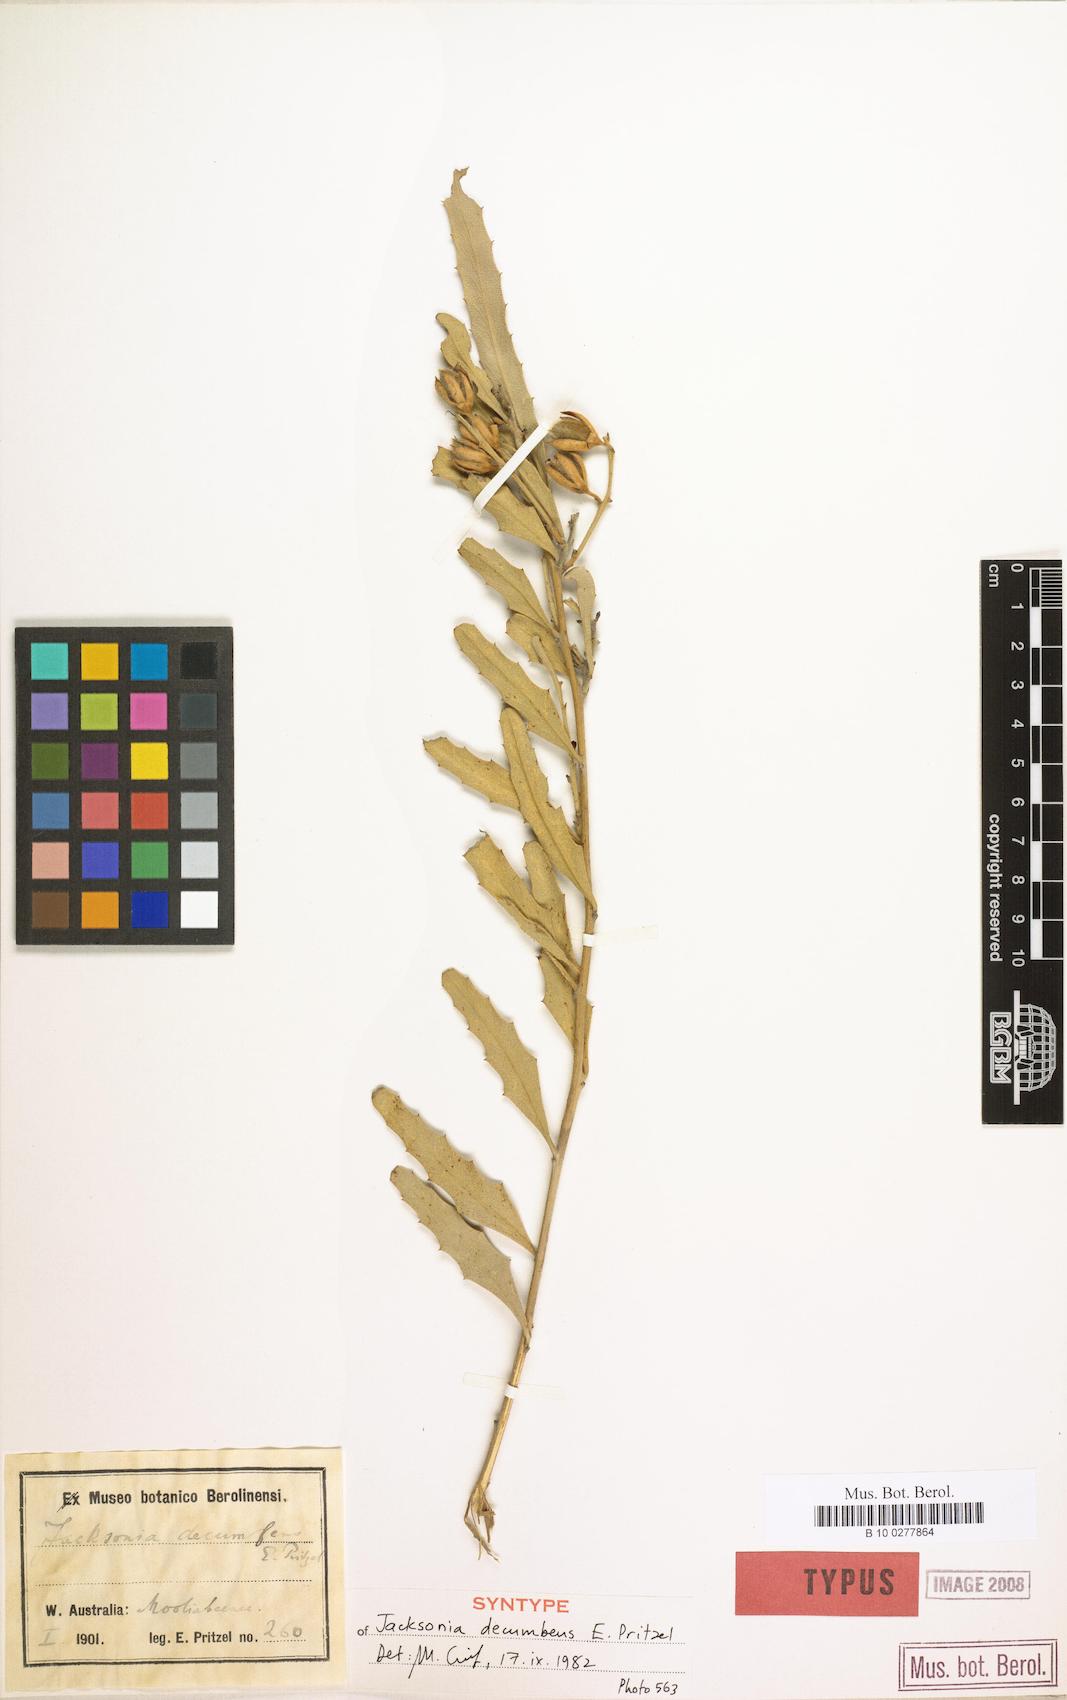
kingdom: Plantae
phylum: Tracheophyta
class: Magnoliopsida
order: Fabales
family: Fabaceae
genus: Jacksonia
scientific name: Jacksonia floribunda
